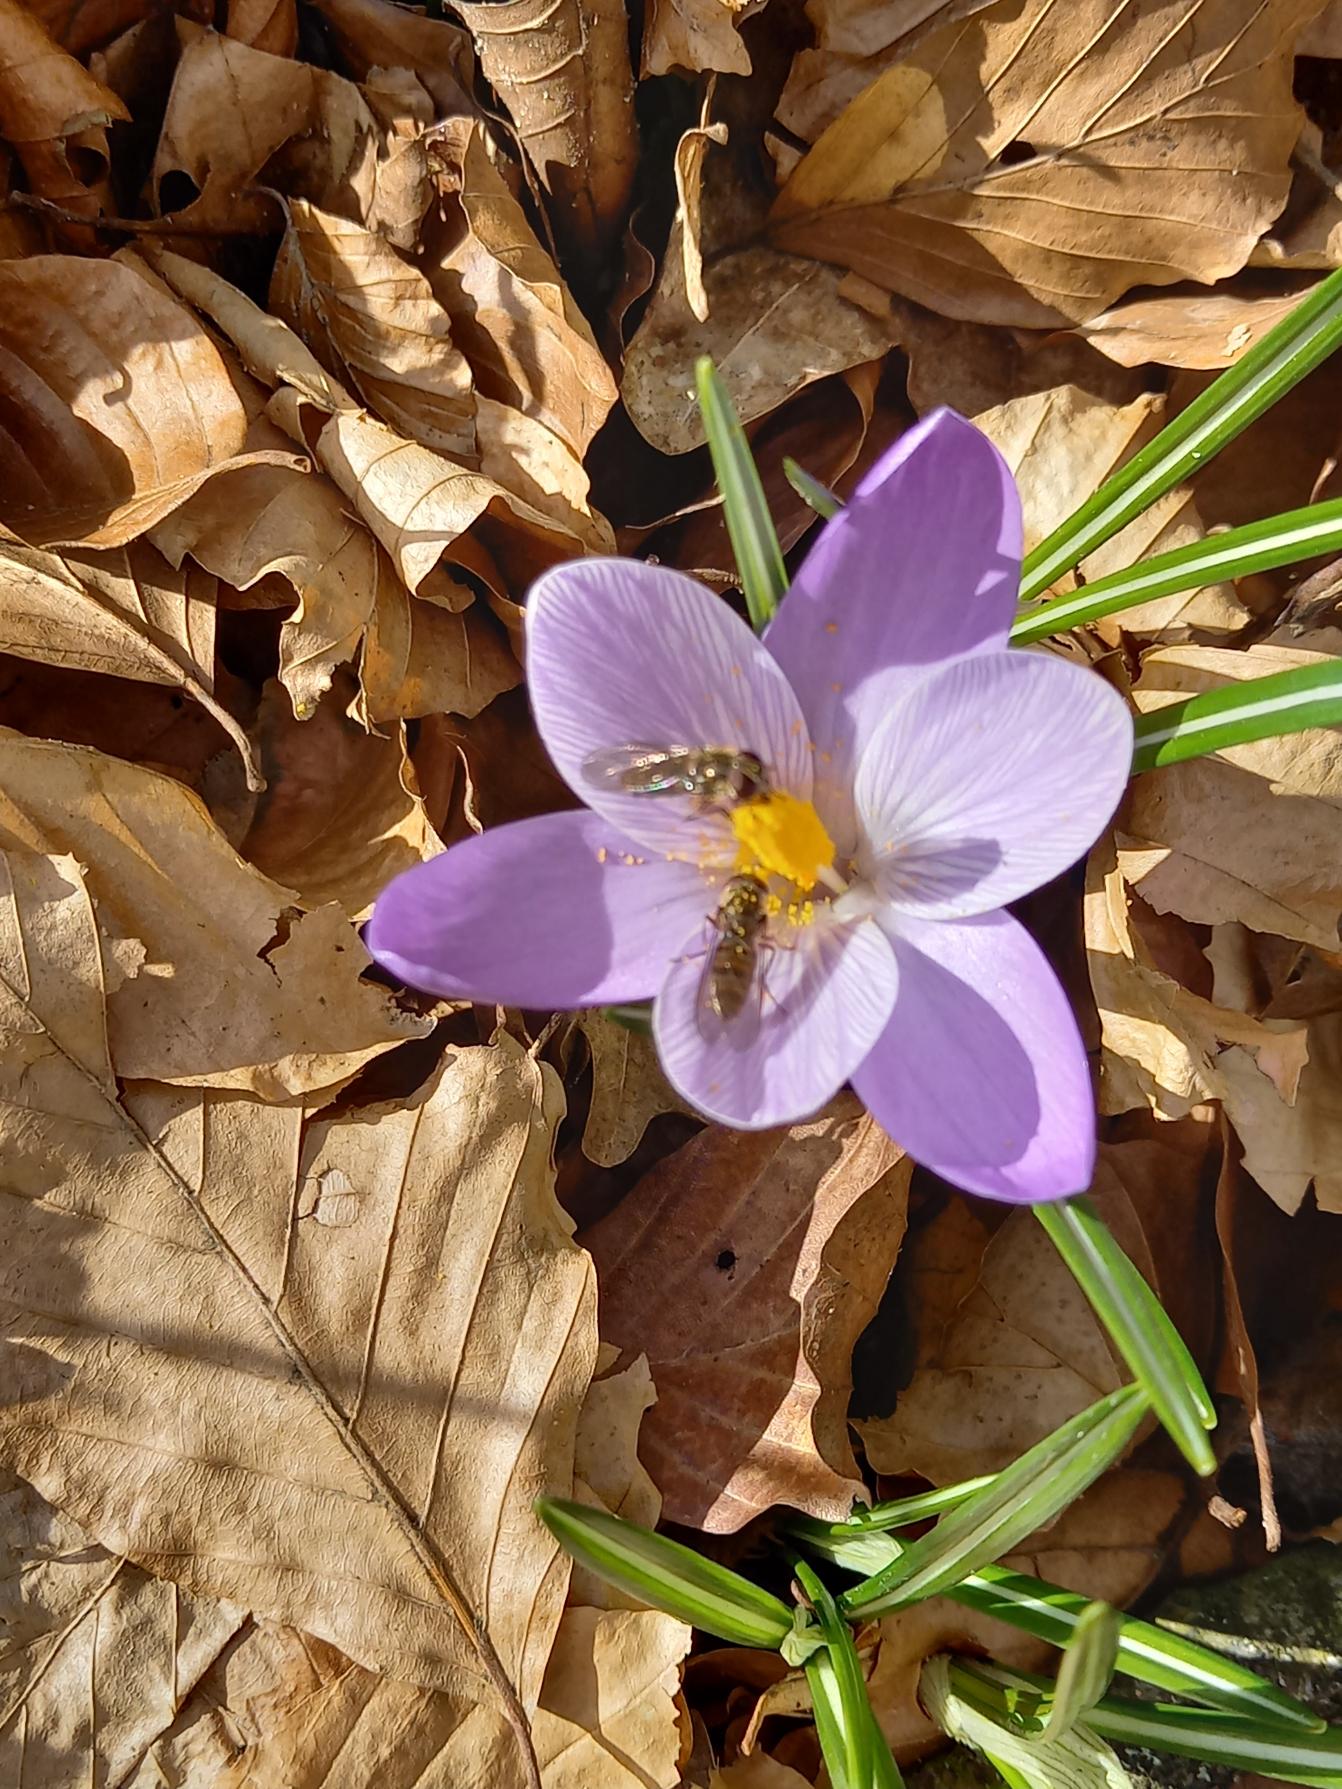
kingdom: Plantae
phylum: Tracheophyta
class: Liliopsida
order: Asparagales
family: Iridaceae
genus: Crocus
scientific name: Crocus tommasinianus
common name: Sne-krokus
